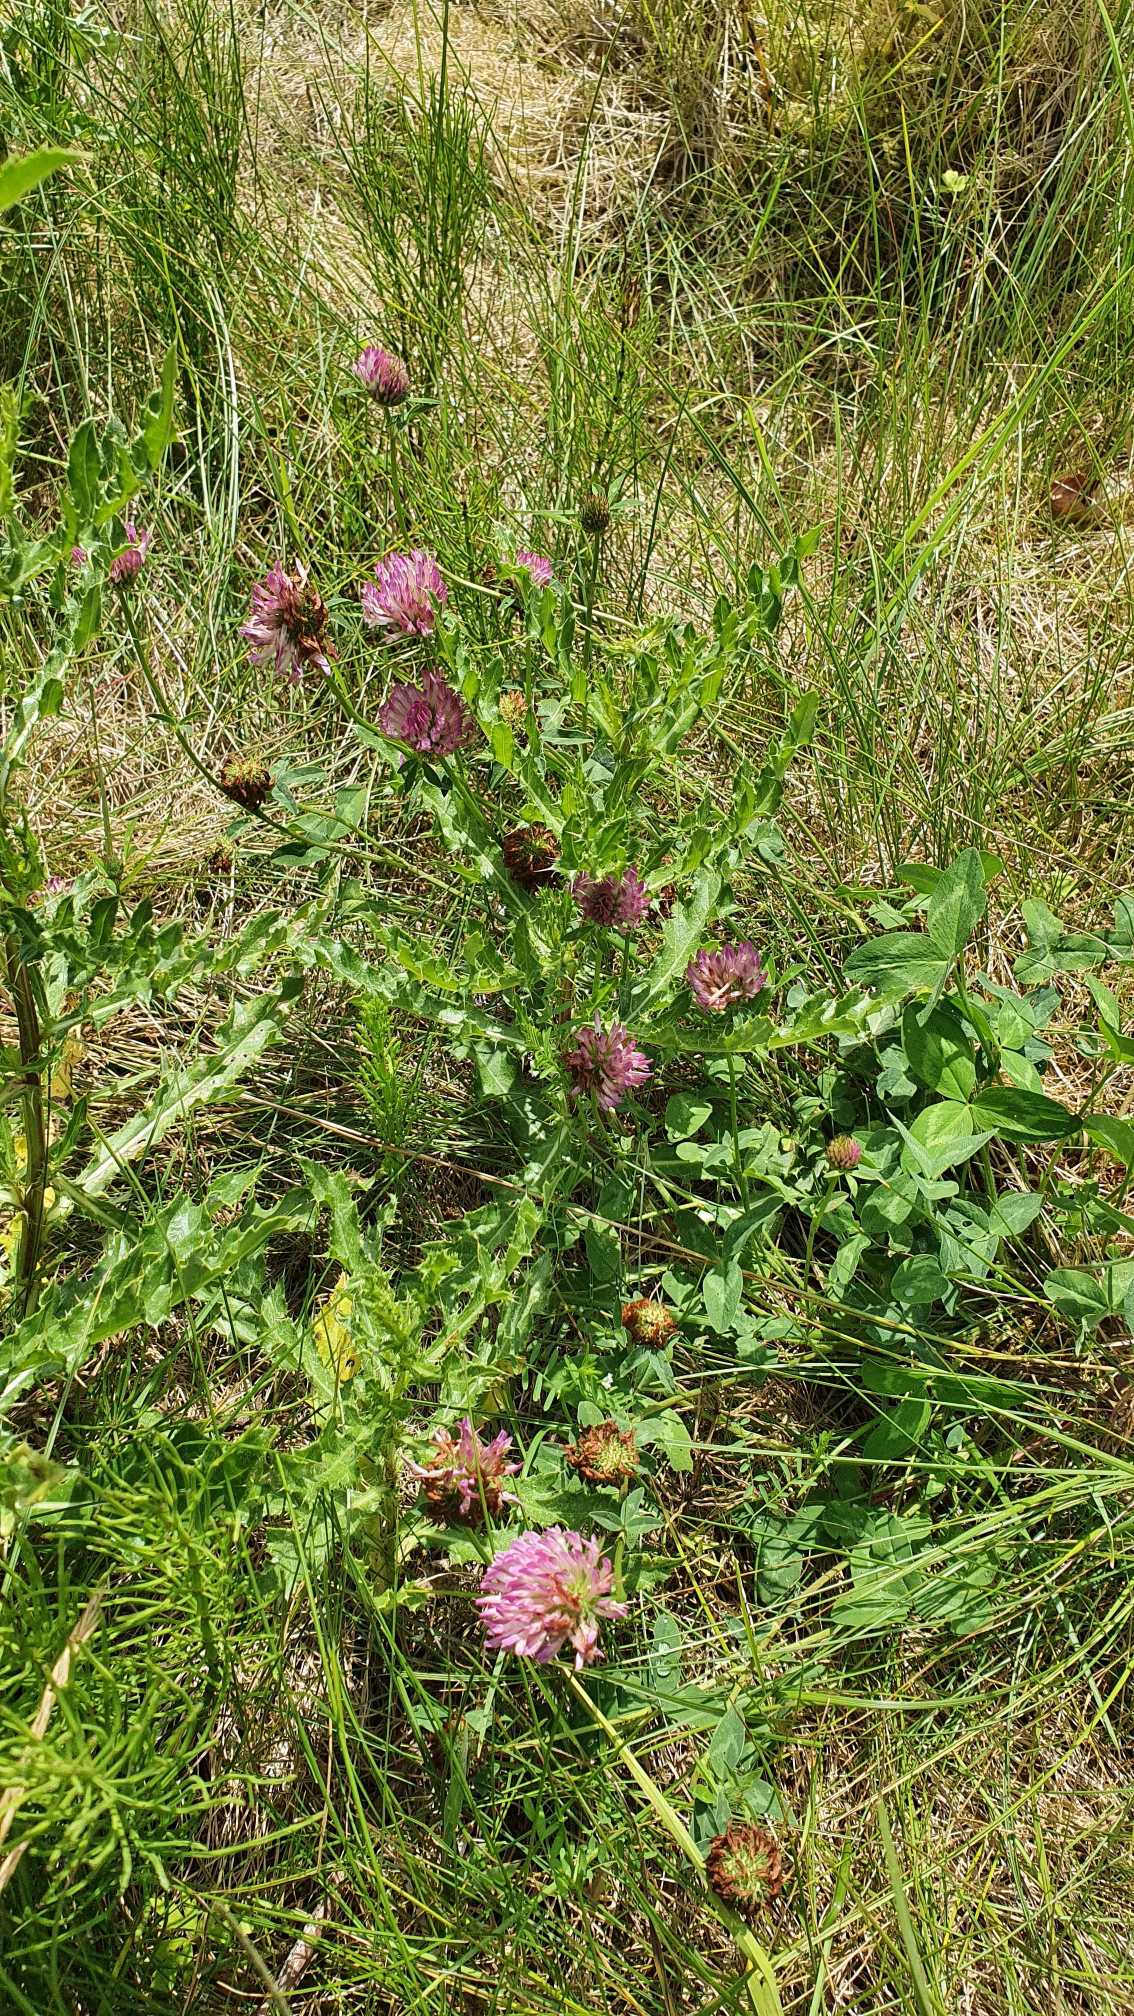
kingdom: Plantae
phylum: Tracheophyta
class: Magnoliopsida
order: Fabales
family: Fabaceae
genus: Trifolium
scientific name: Trifolium pratense
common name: Rød-kløver
